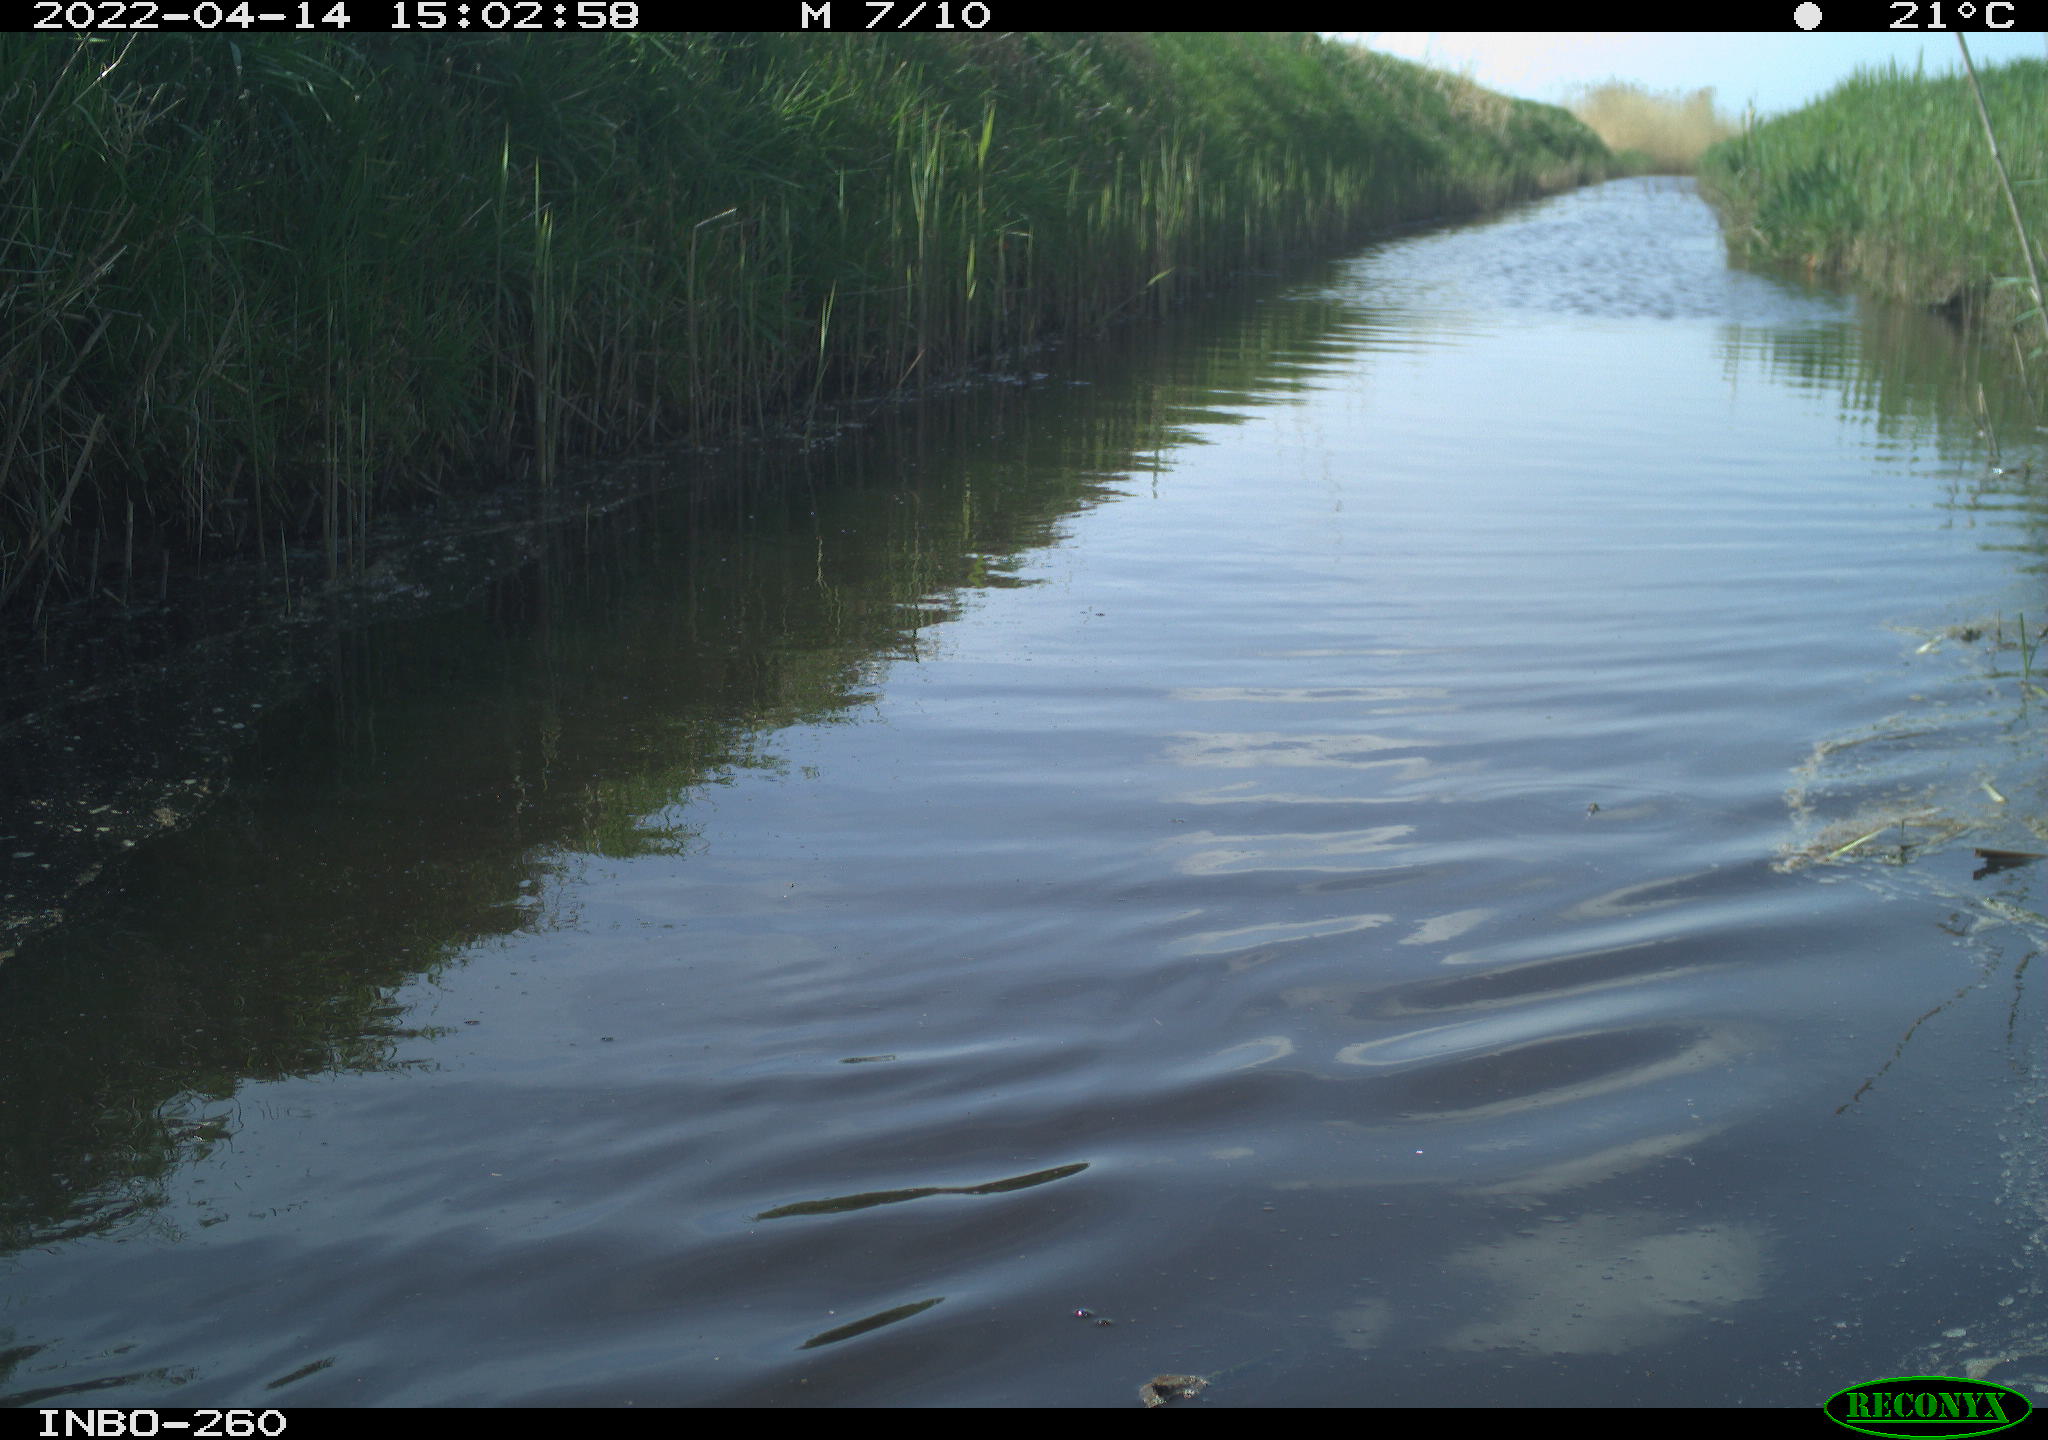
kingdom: Animalia
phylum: Chordata
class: Aves
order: Gruiformes
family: Rallidae
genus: Fulica
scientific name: Fulica atra
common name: Eurasian coot
